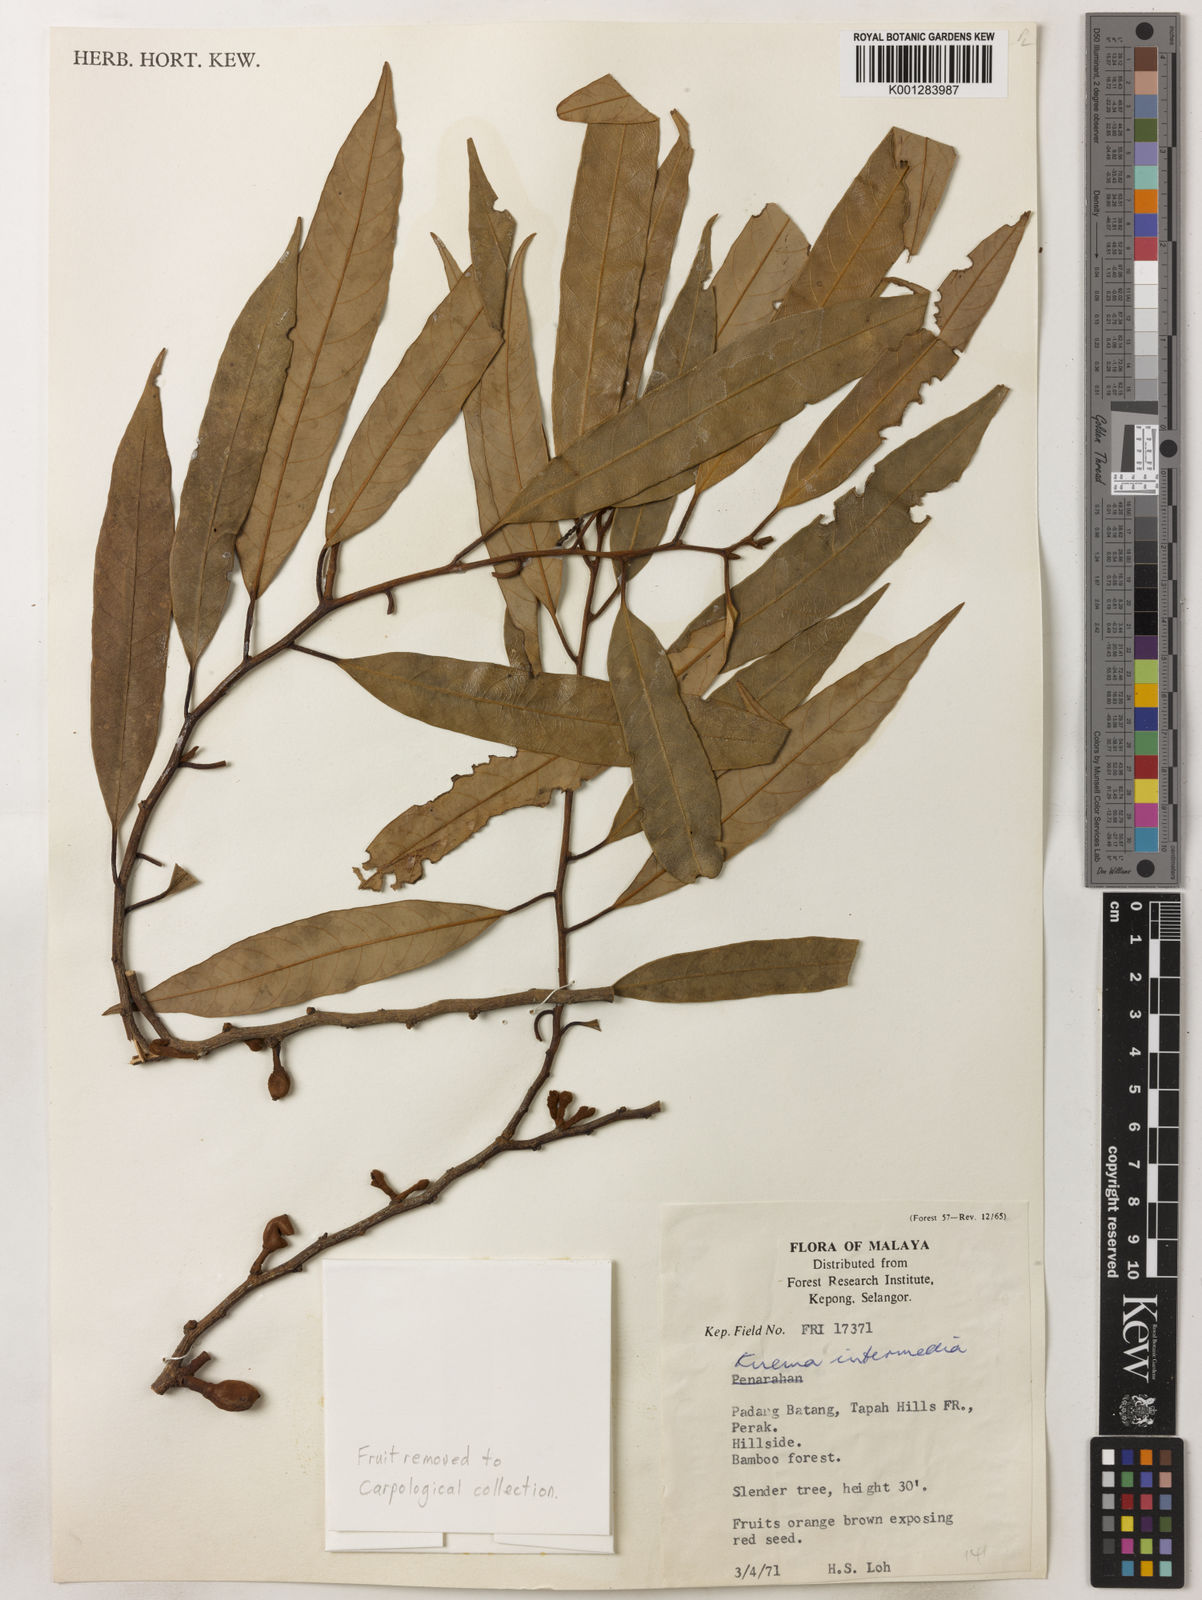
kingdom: Plantae
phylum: Tracheophyta
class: Magnoliopsida
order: Magnoliales
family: Myristicaceae
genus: Knema
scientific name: Knema intermedia
